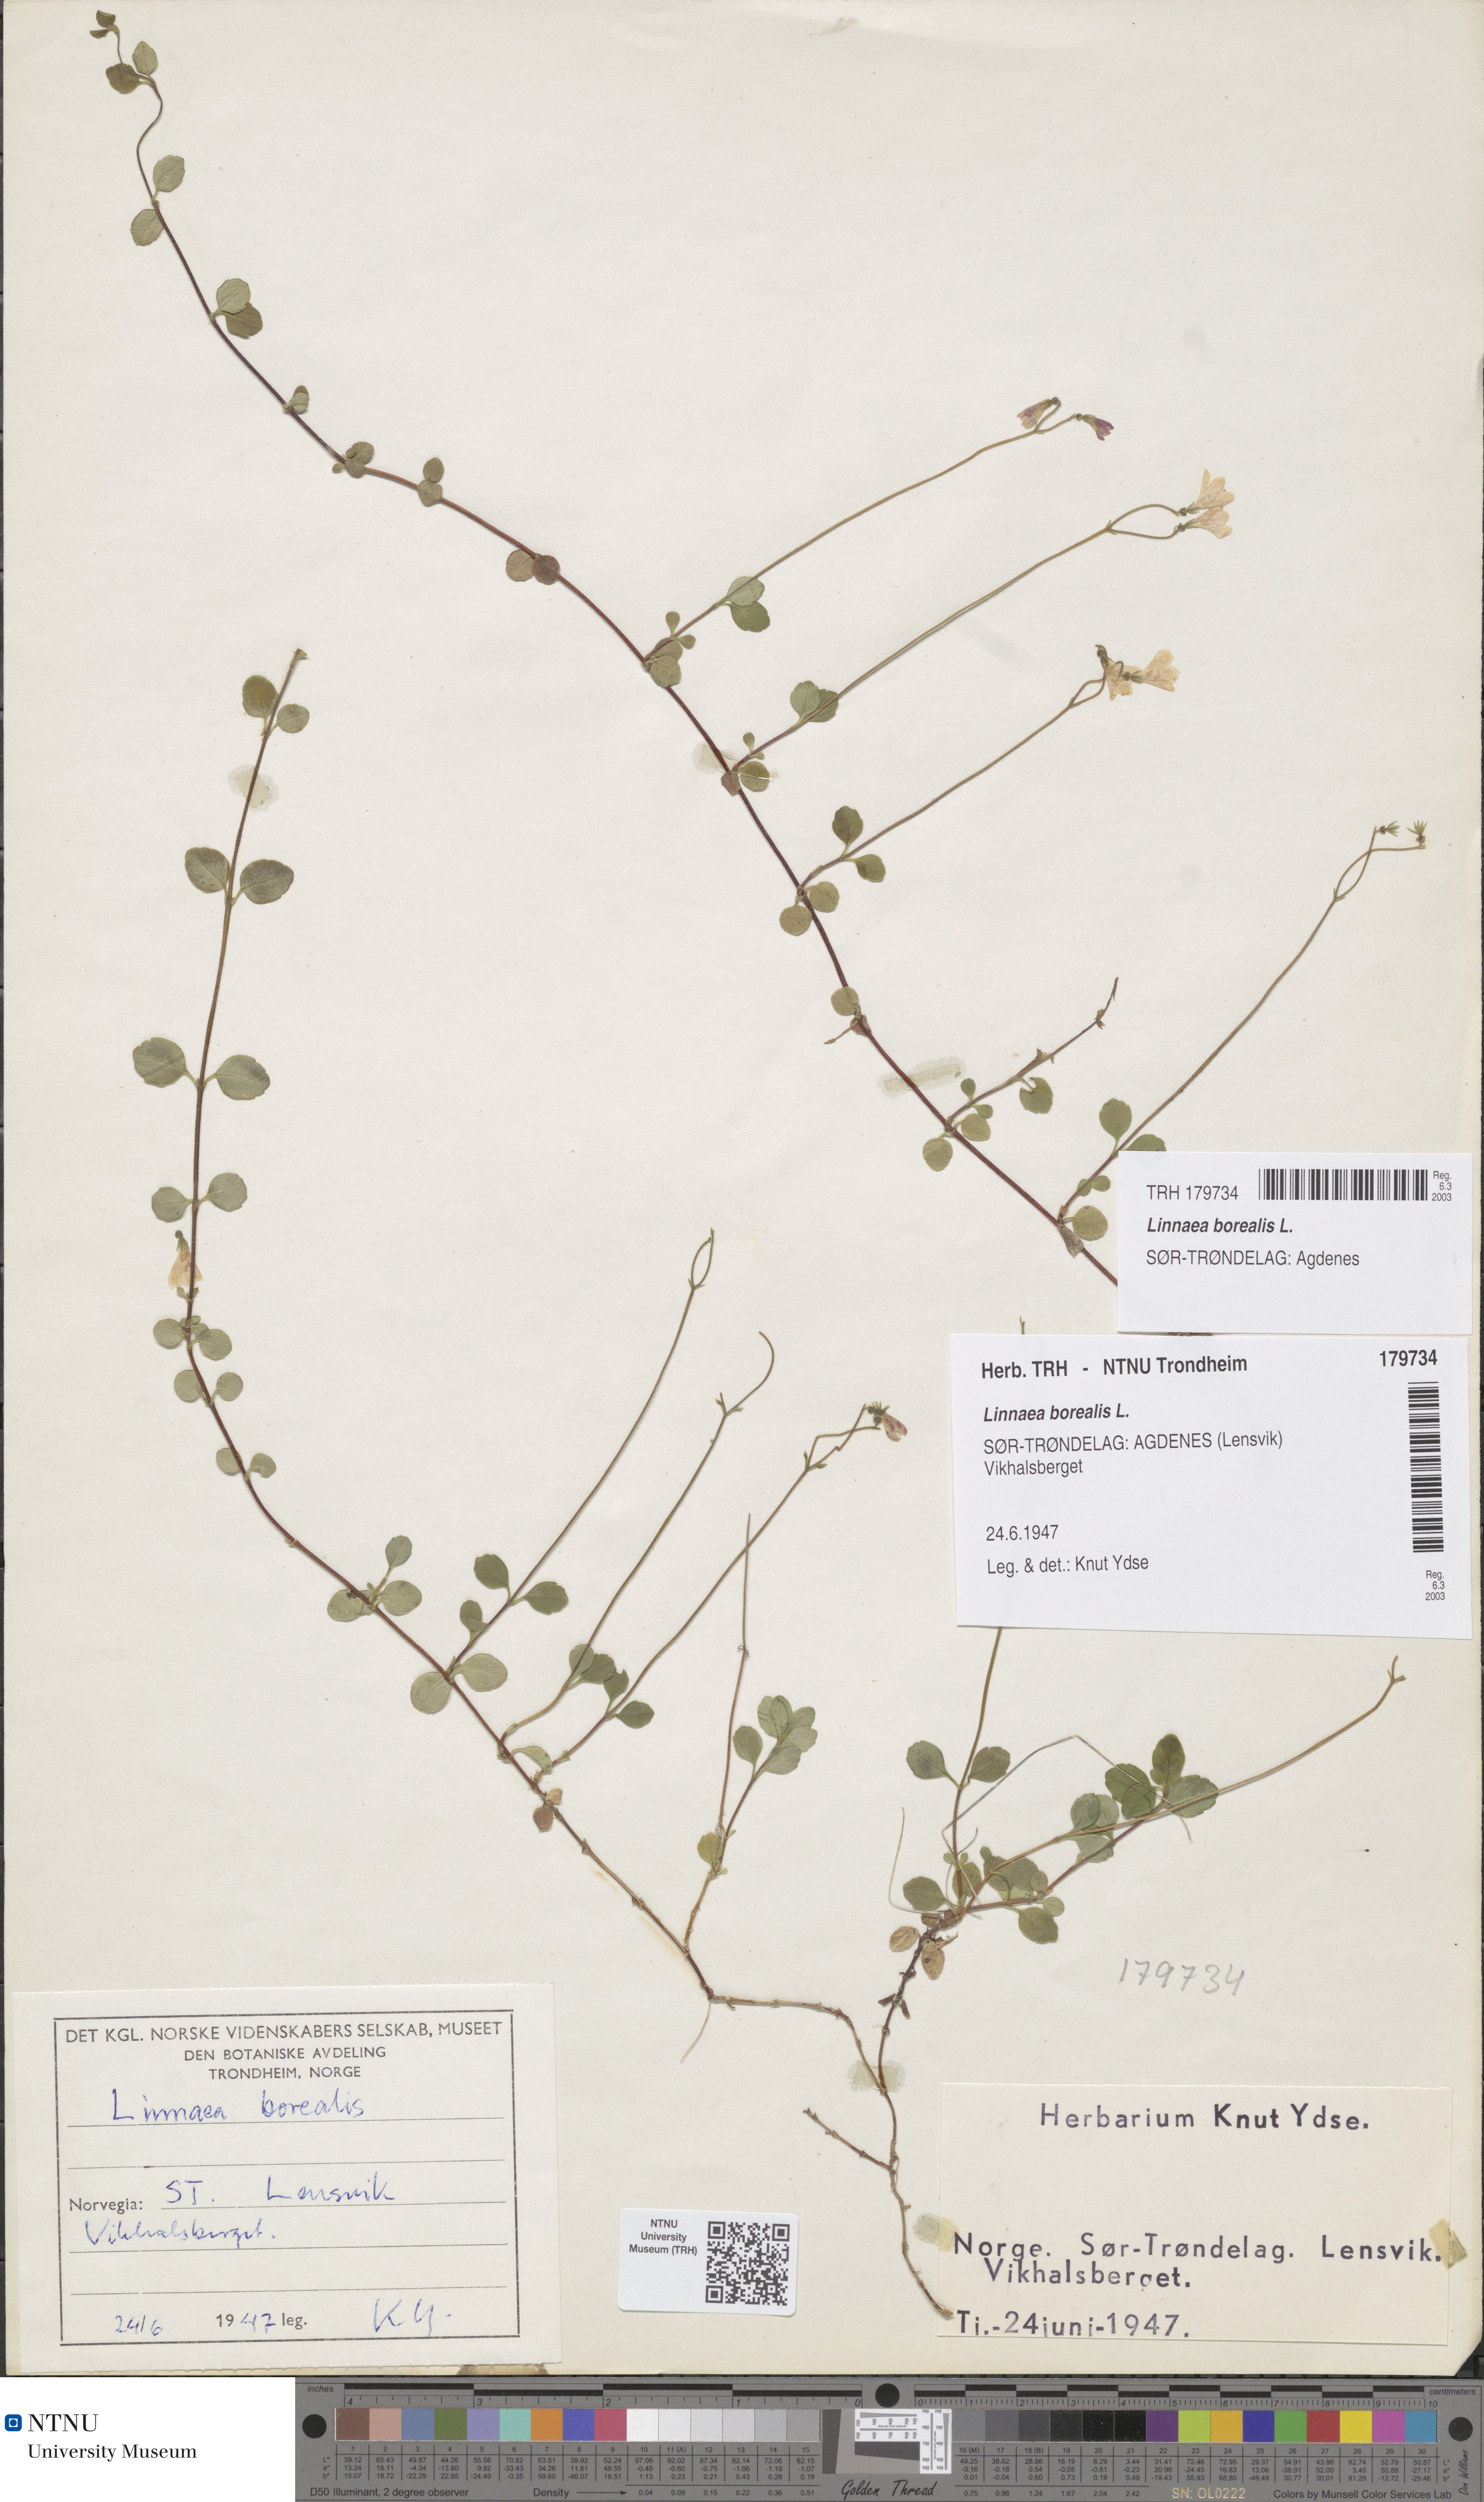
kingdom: Plantae
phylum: Tracheophyta
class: Magnoliopsida
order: Dipsacales
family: Caprifoliaceae
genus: Linnaea
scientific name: Linnaea borealis
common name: Twinflower
